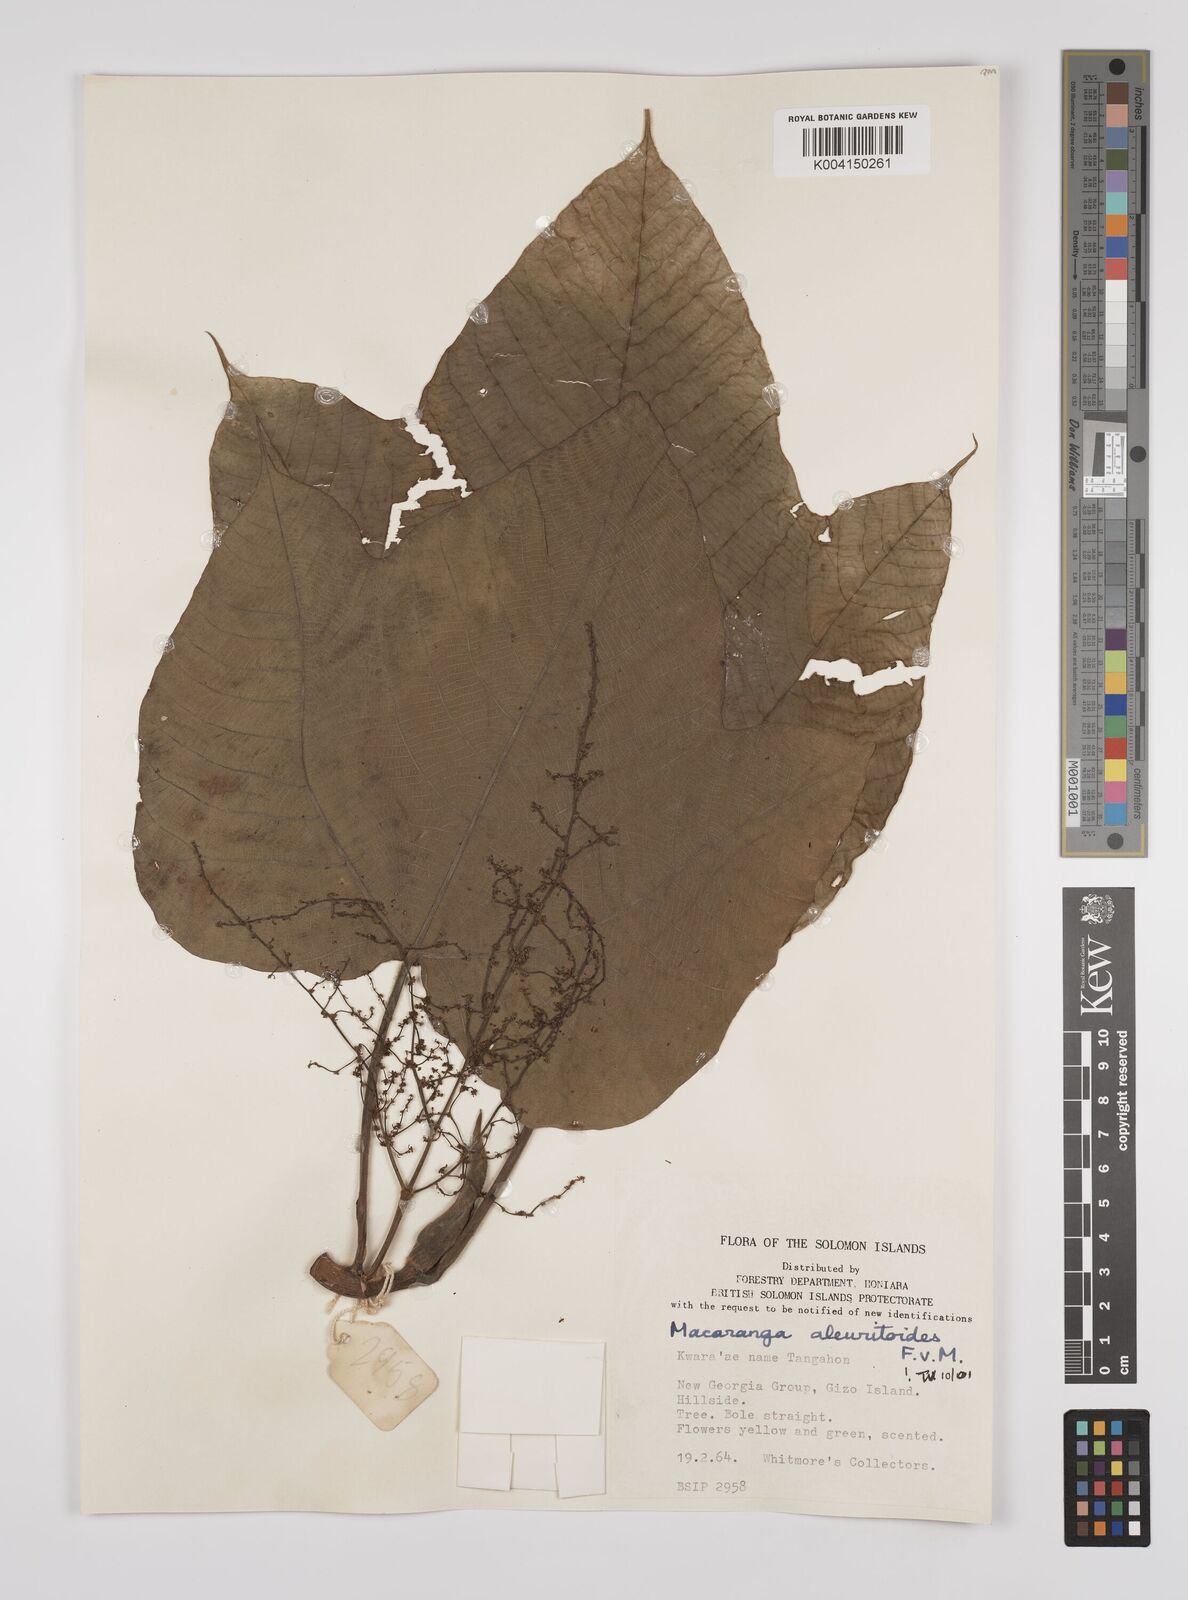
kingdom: Plantae
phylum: Tracheophyta
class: Magnoliopsida
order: Malpighiales
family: Euphorbiaceae
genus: Macaranga
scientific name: Macaranga aleuritoides
